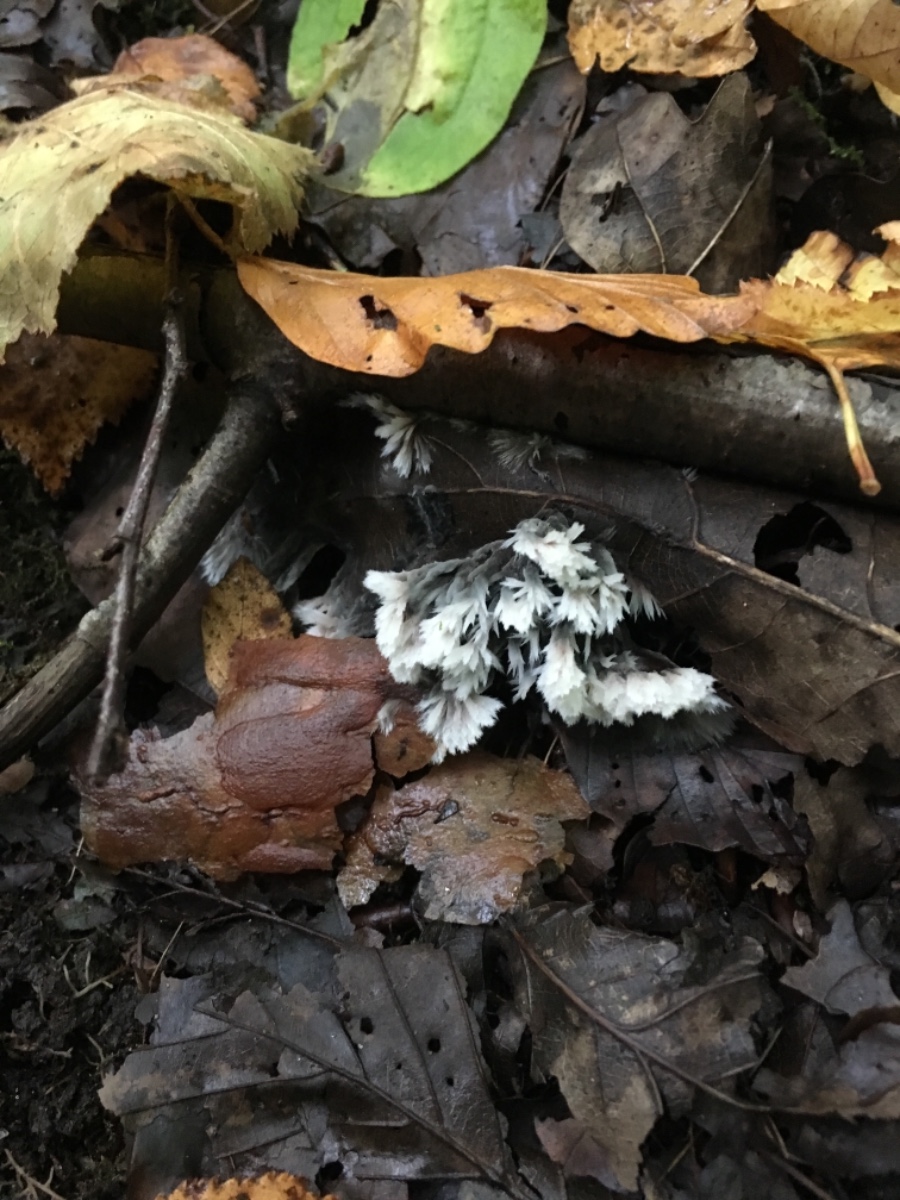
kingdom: Fungi
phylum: Basidiomycota
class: Agaricomycetes
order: Thelephorales
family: Thelephoraceae
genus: Thelephora
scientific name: Thelephora penicillata
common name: fladtrådt frynsesvamp
